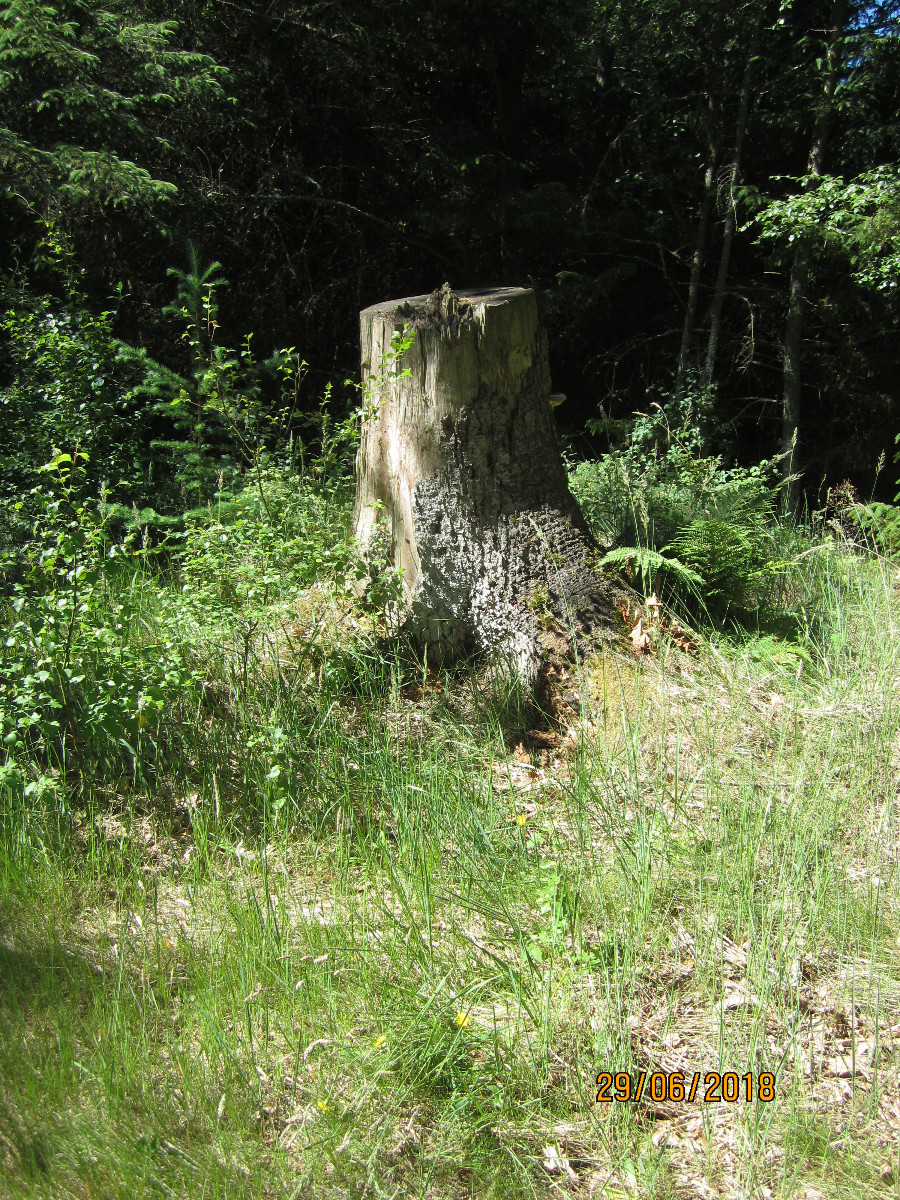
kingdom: Fungi
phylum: Basidiomycota
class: Agaricomycetes
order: Polyporales
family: Fomitopsidaceae
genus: Fomitopsis
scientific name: Fomitopsis pinicola
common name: randbæltet hovporesvamp
